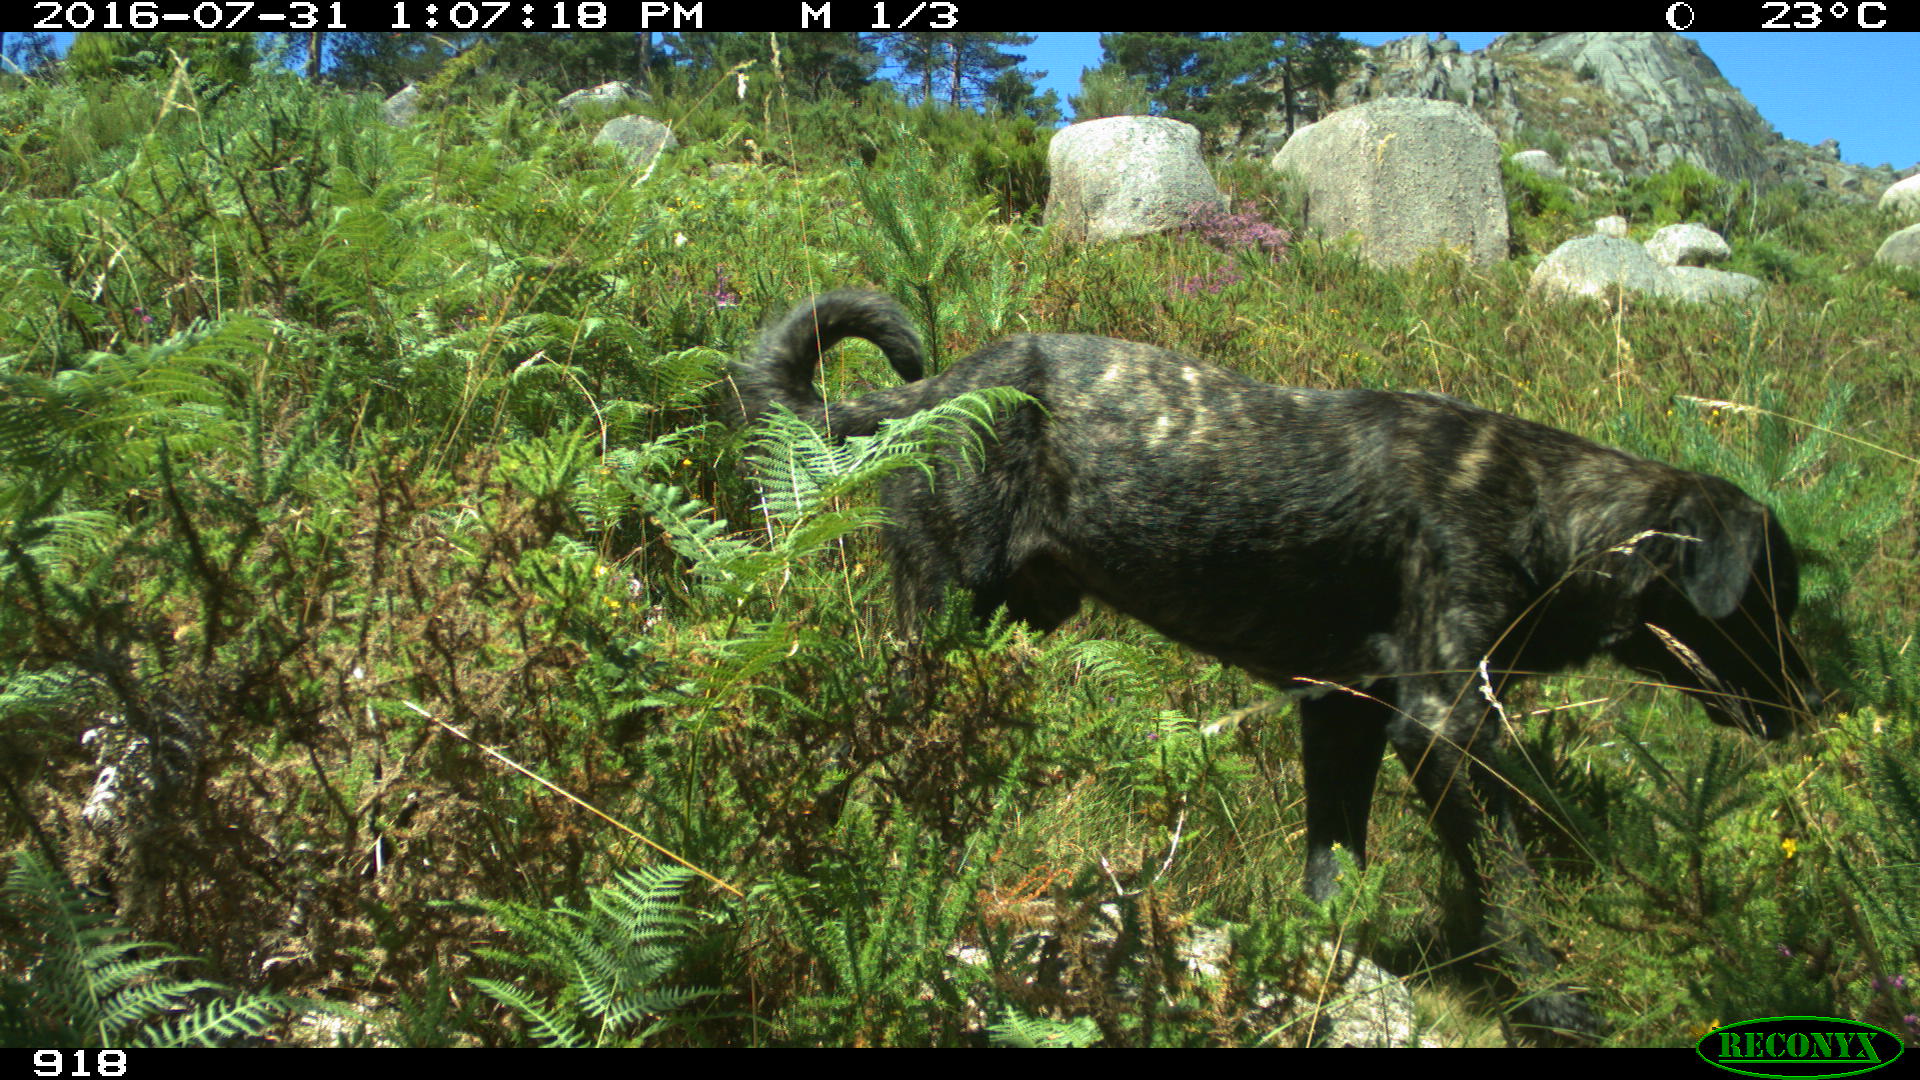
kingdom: Animalia
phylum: Chordata
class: Mammalia
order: Carnivora
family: Canidae
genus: Canis
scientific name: Canis lupus
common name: Gray wolf
